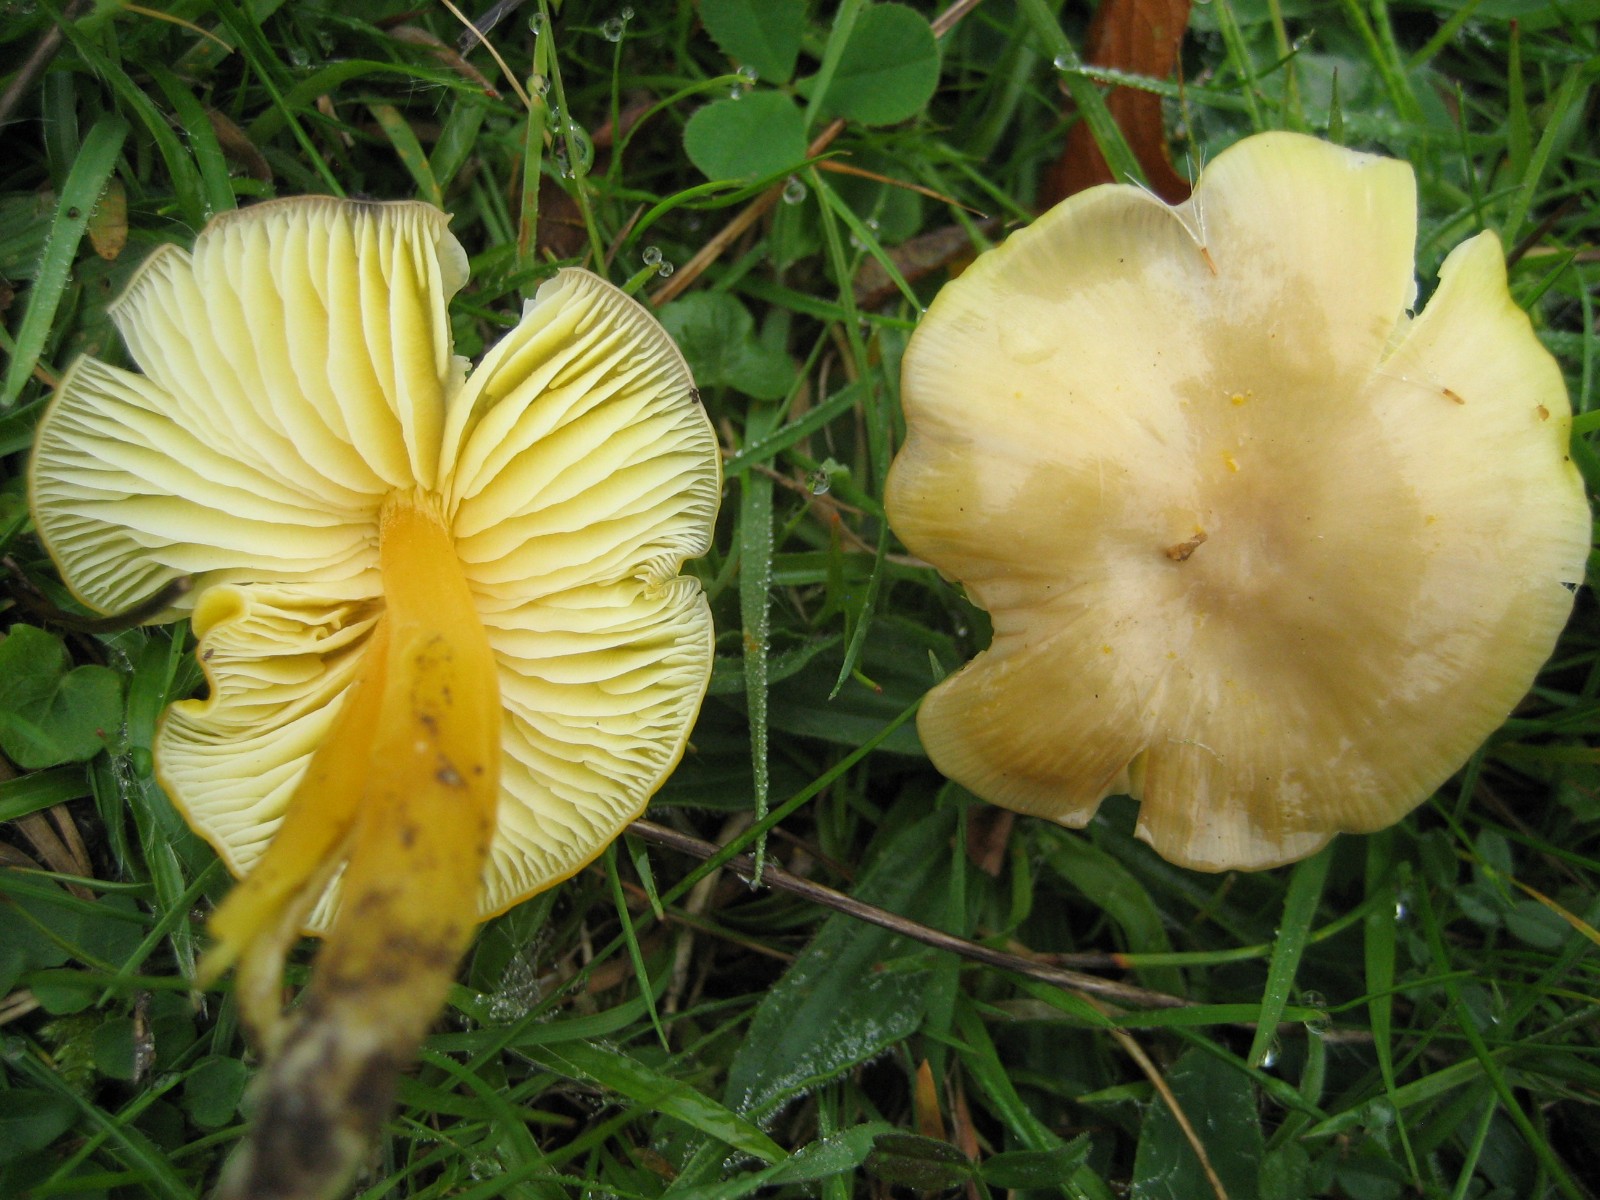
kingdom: Fungi
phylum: Basidiomycota
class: Agaricomycetes
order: Agaricales
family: Hygrophoraceae
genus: Hygrocybe
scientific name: Hygrocybe chlorophana
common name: gul vokshat
